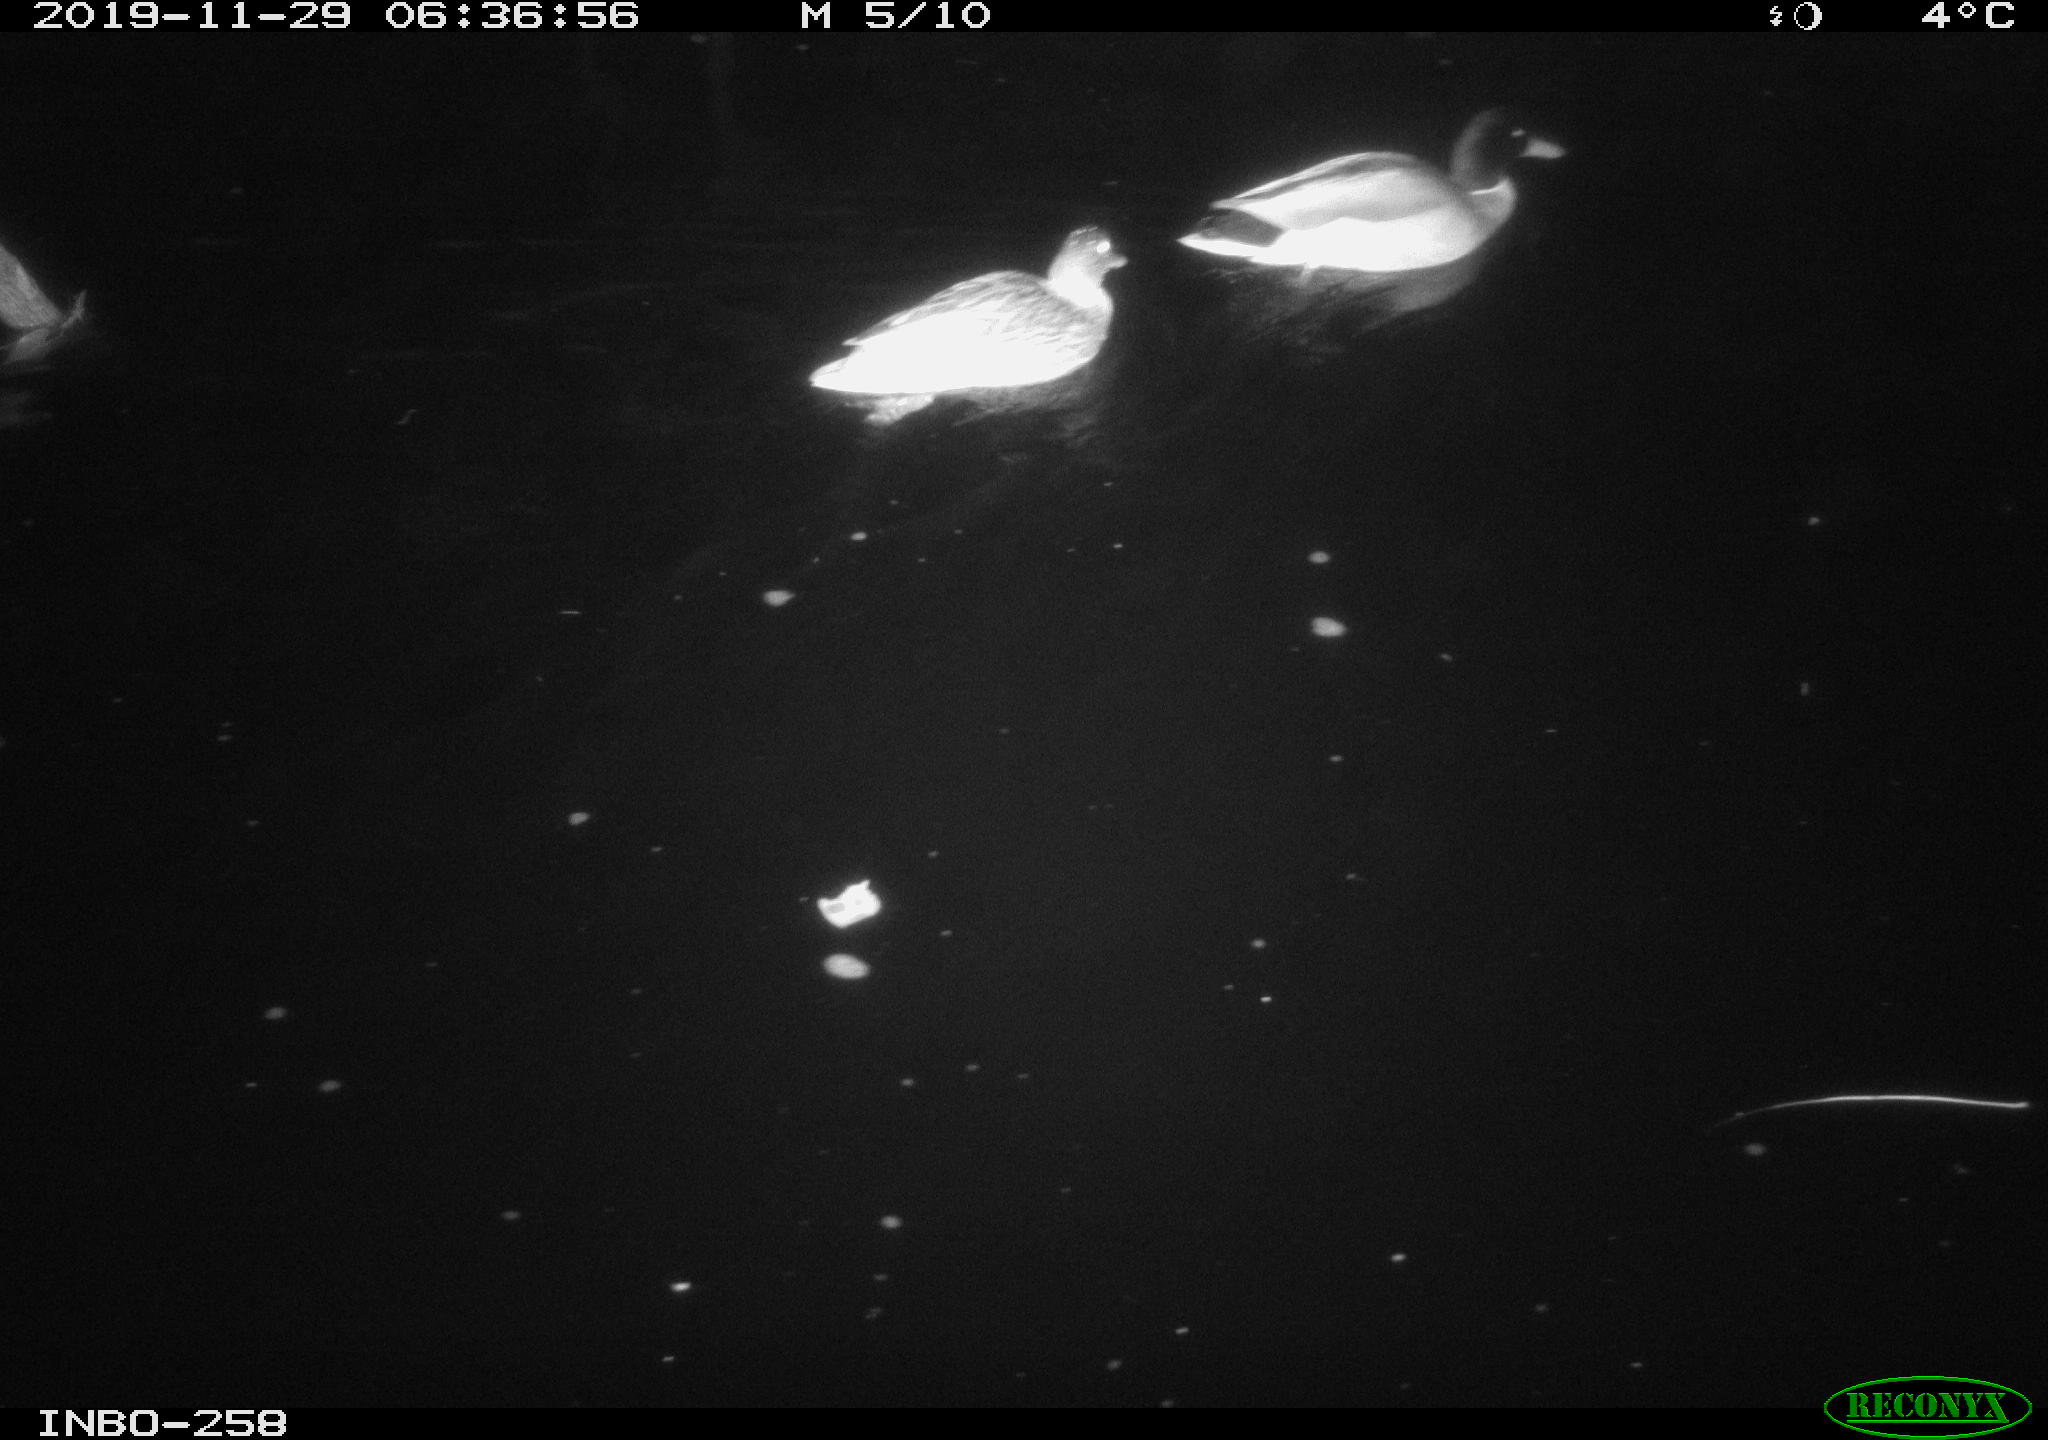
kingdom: Animalia
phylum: Chordata
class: Aves
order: Anseriformes
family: Anatidae
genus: Anas
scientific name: Anas platyrhynchos
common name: Mallard
